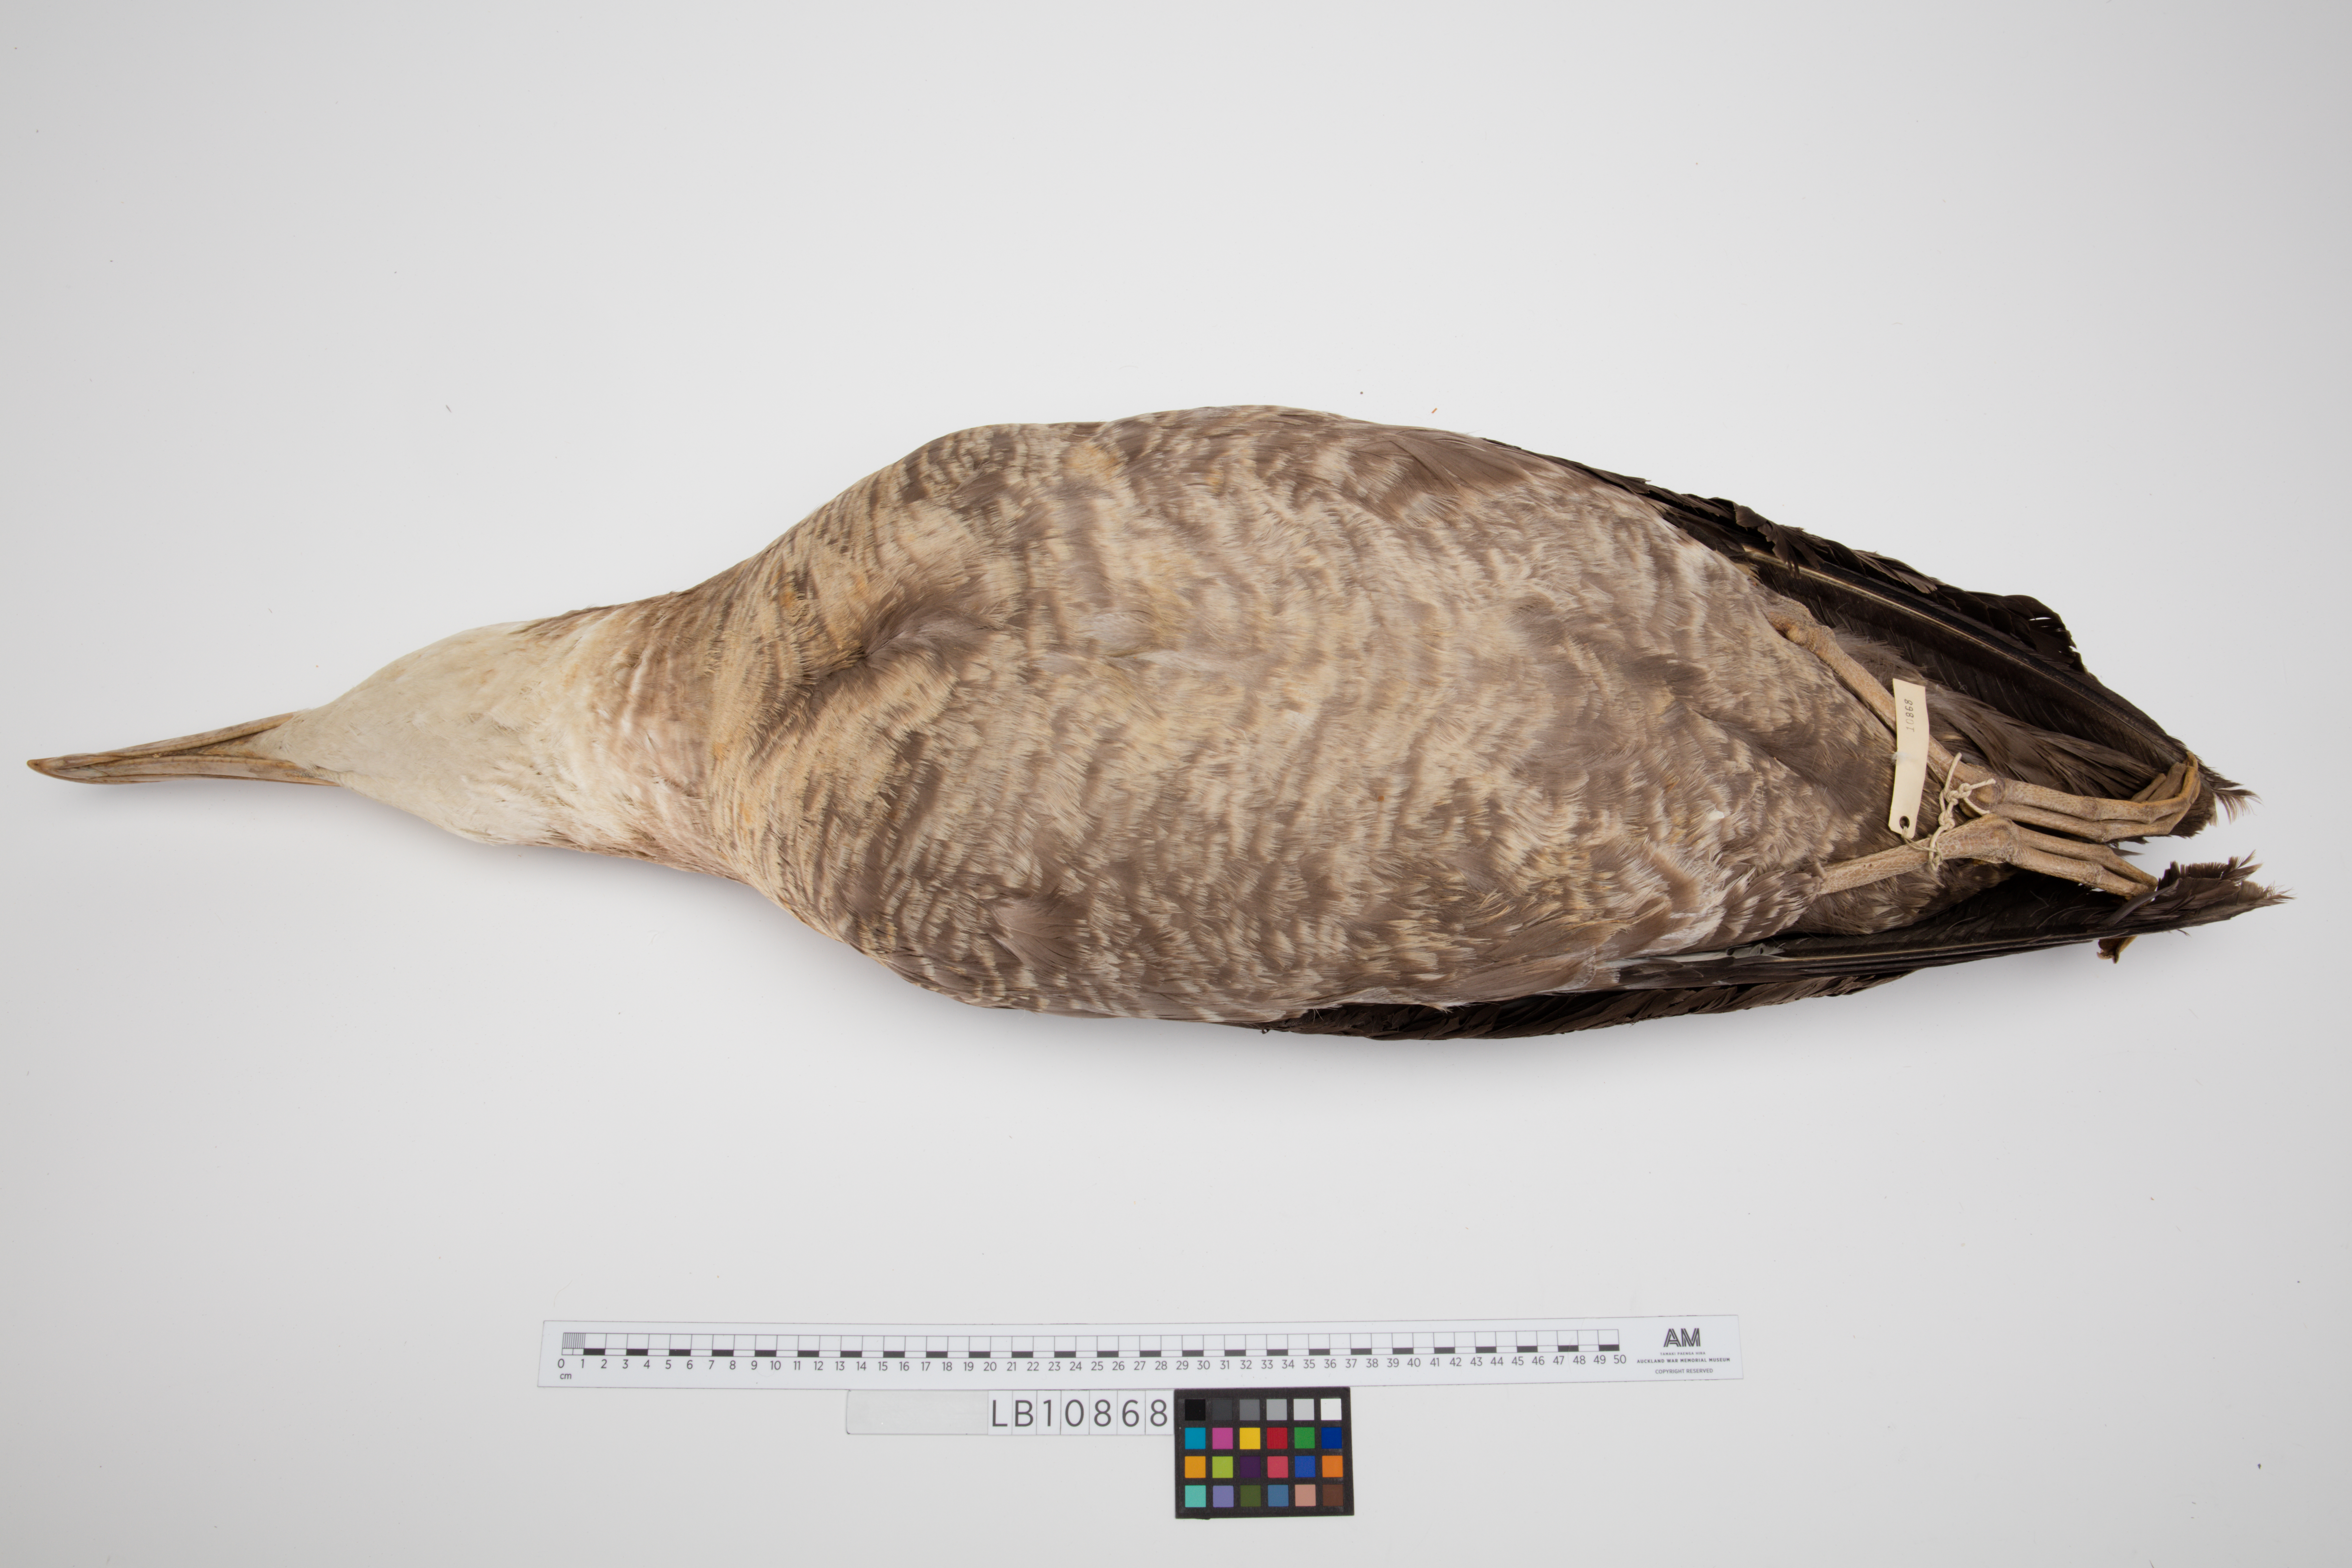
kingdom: Animalia
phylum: Chordata
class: Aves
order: Procellariiformes
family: Diomedeidae
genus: Diomedea
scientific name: Diomedea antipodensis
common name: Antipodean albatross
